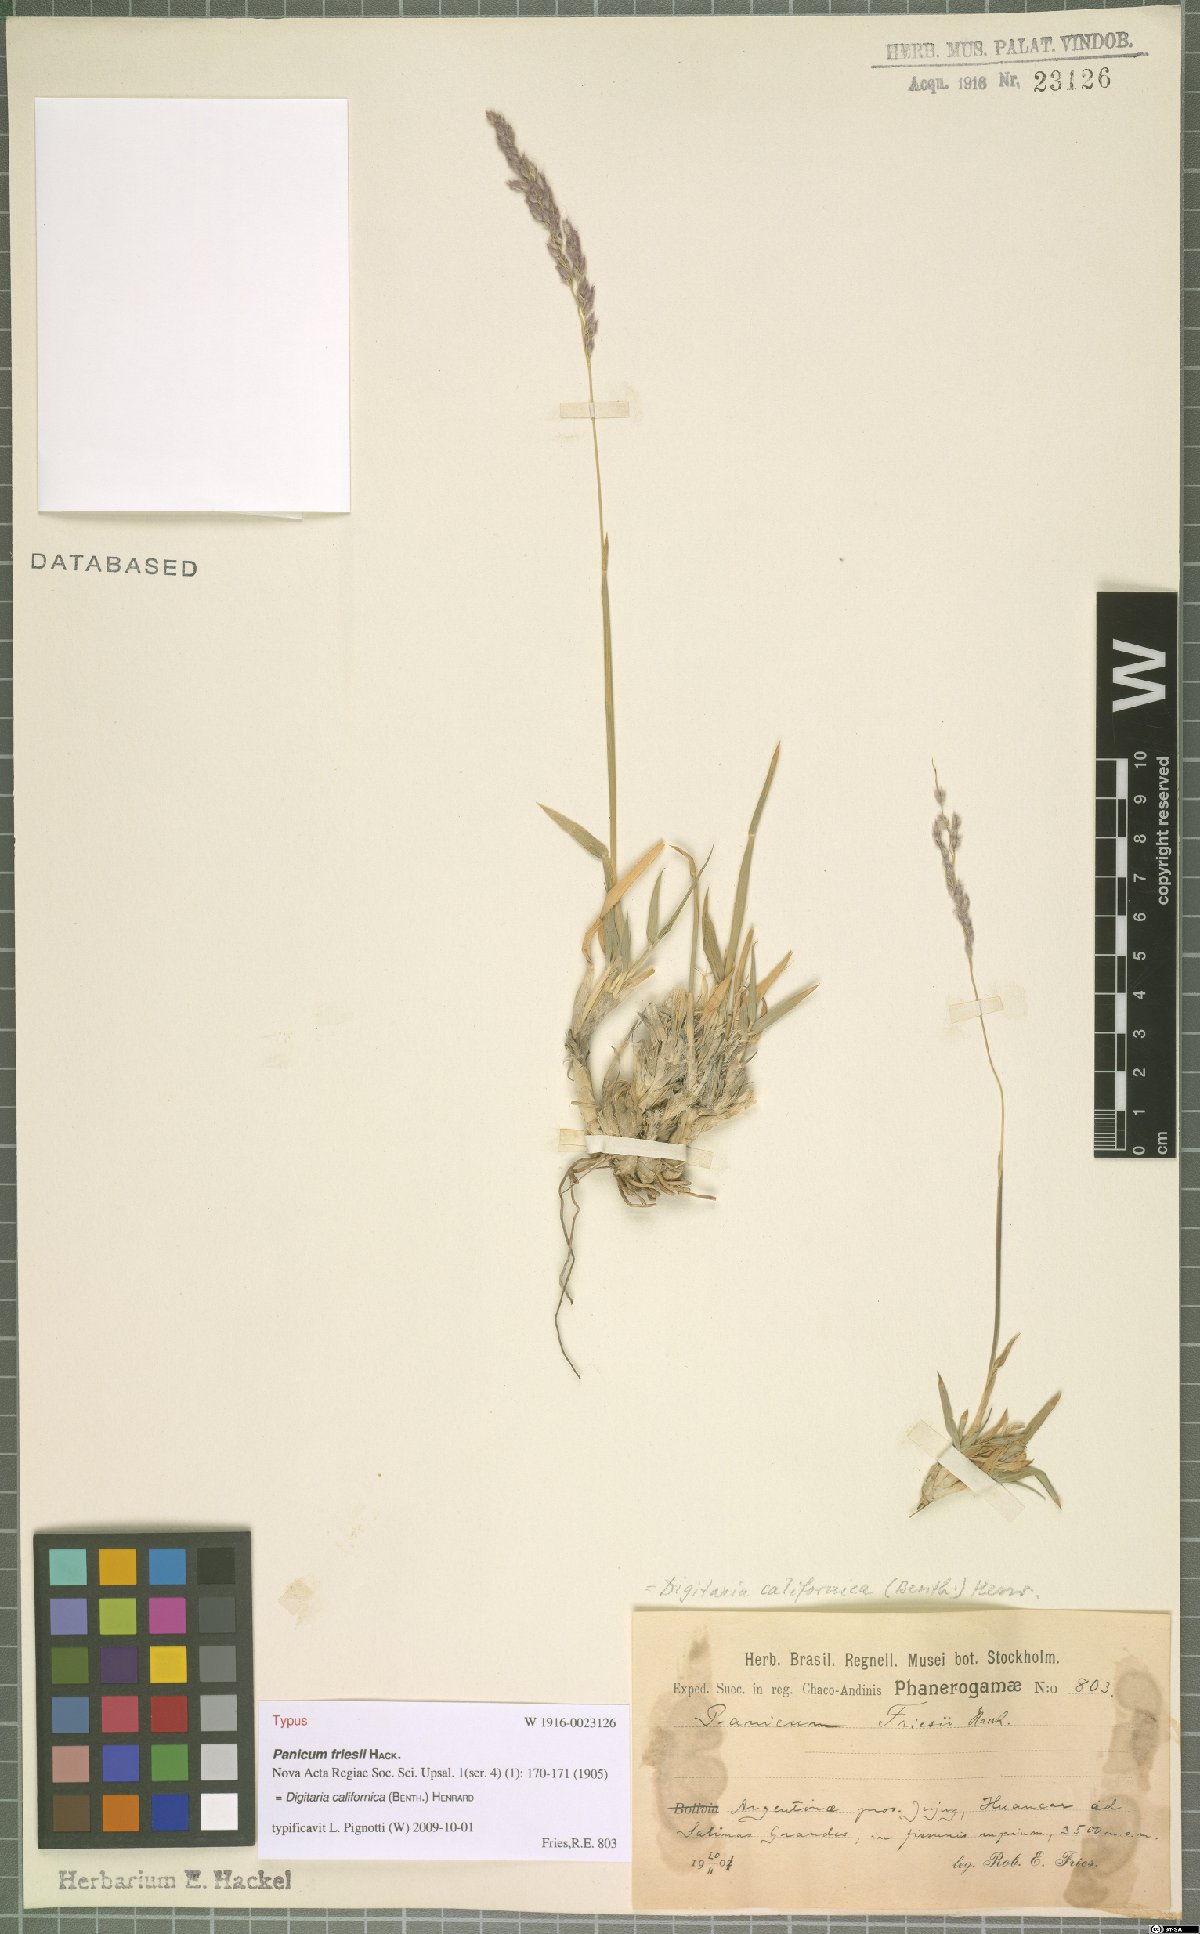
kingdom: Plantae
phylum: Tracheophyta
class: Liliopsida
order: Poales
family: Poaceae
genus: Digitaria
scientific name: Digitaria californica
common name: Arizona cottontop
